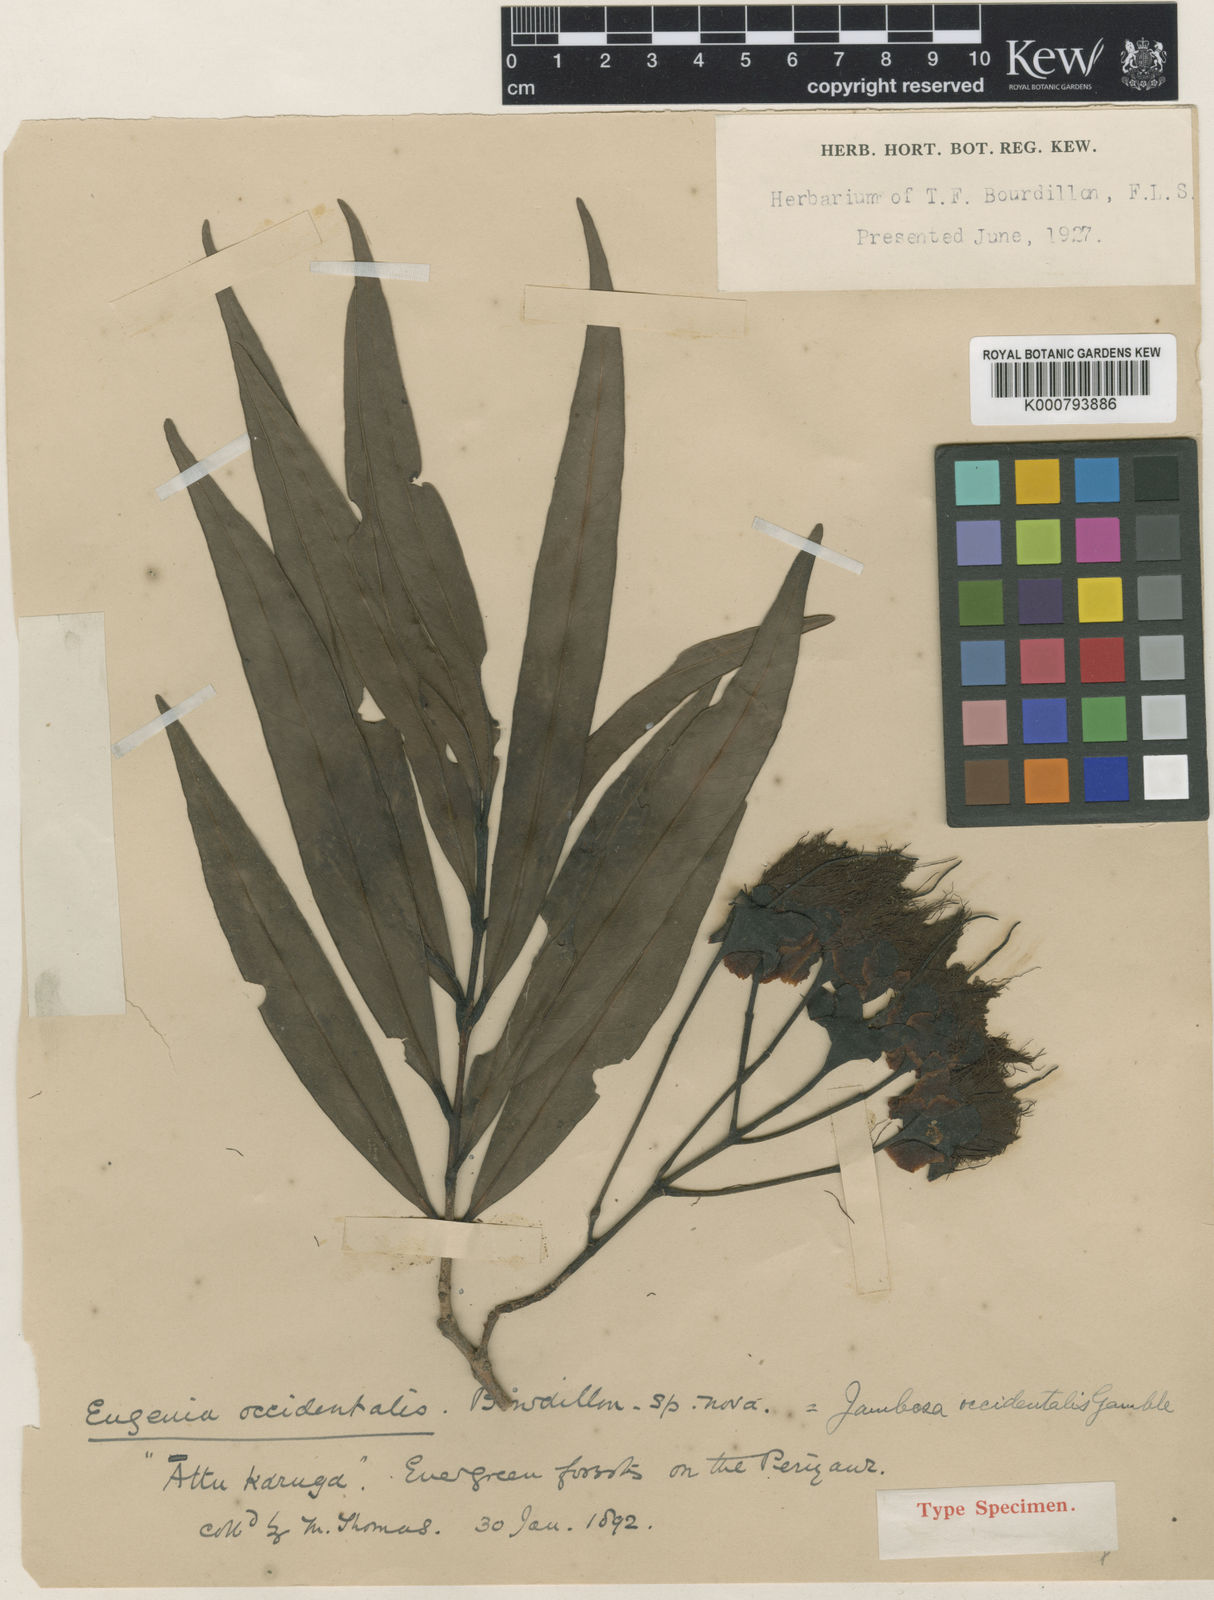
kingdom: Plantae
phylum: Tracheophyta
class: Magnoliopsida
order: Myrtales
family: Myrtaceae
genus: Syzygium
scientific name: Syzygium occidentale
